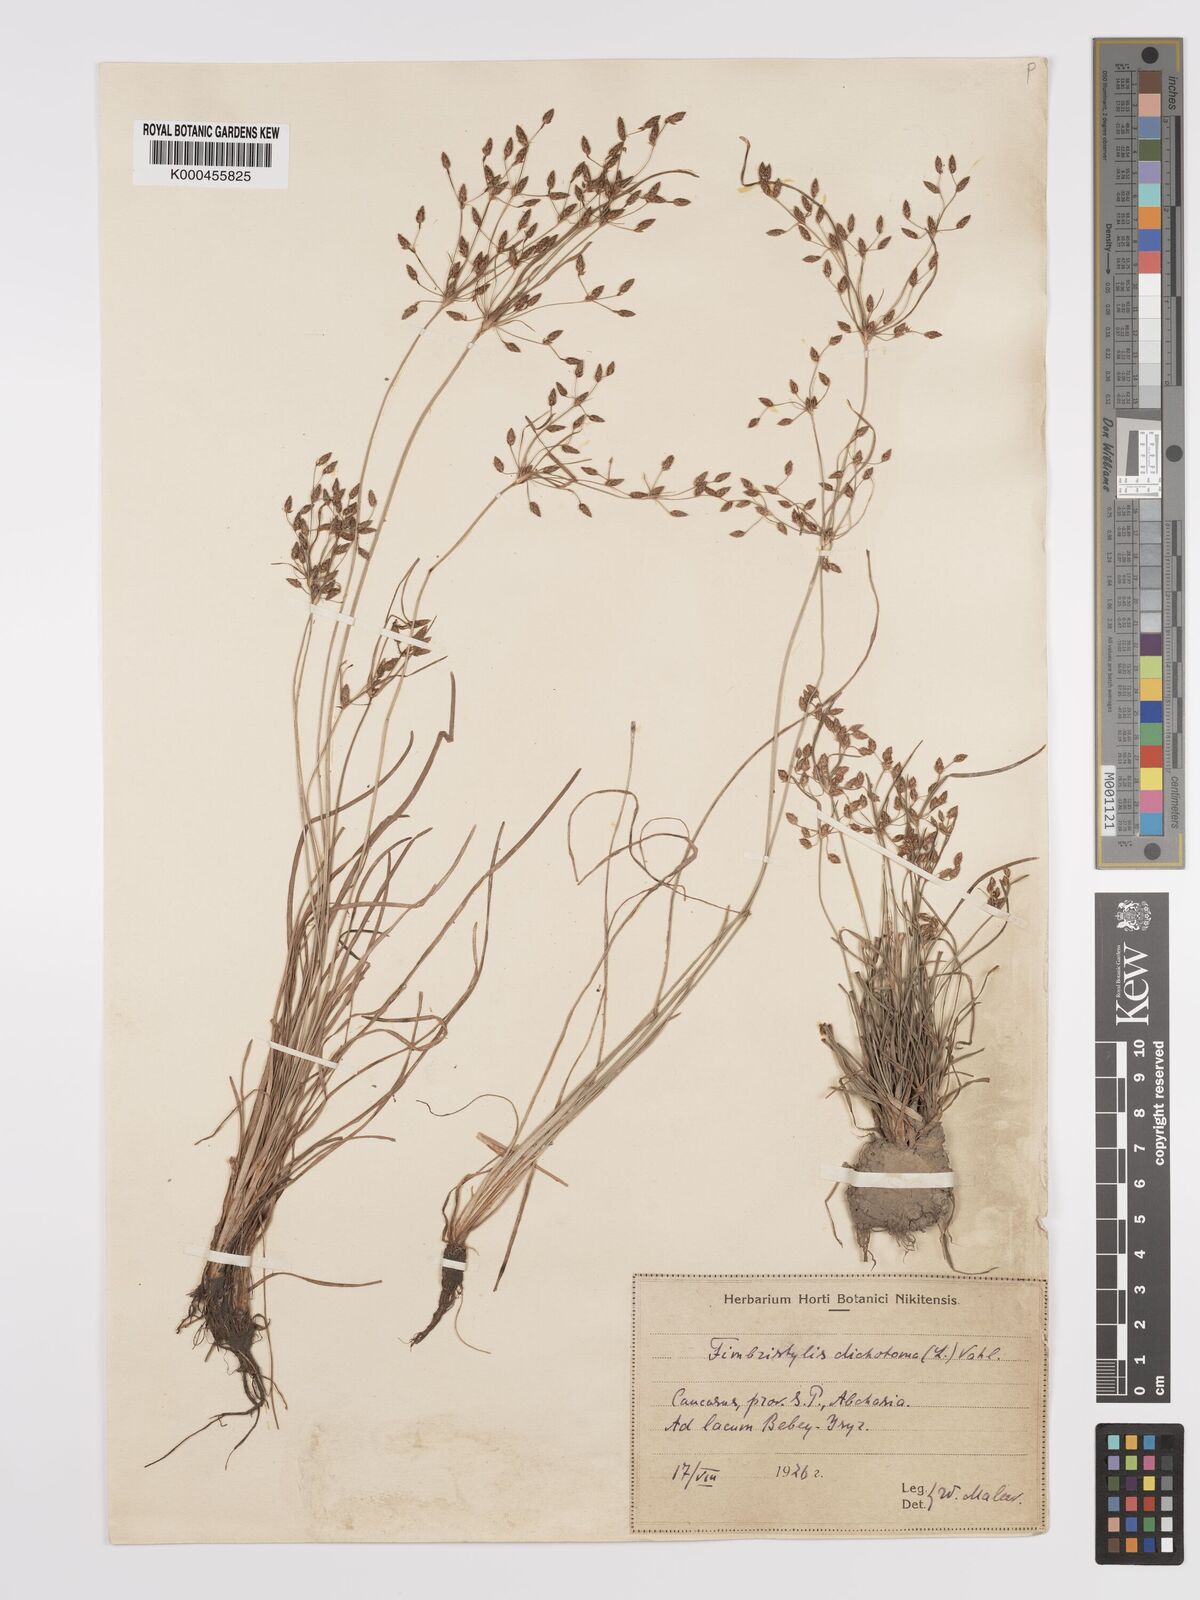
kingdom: Plantae
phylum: Tracheophyta
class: Liliopsida
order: Poales
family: Cyperaceae
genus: Fimbristylis
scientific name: Fimbristylis dichotoma
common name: Forked fimbry
